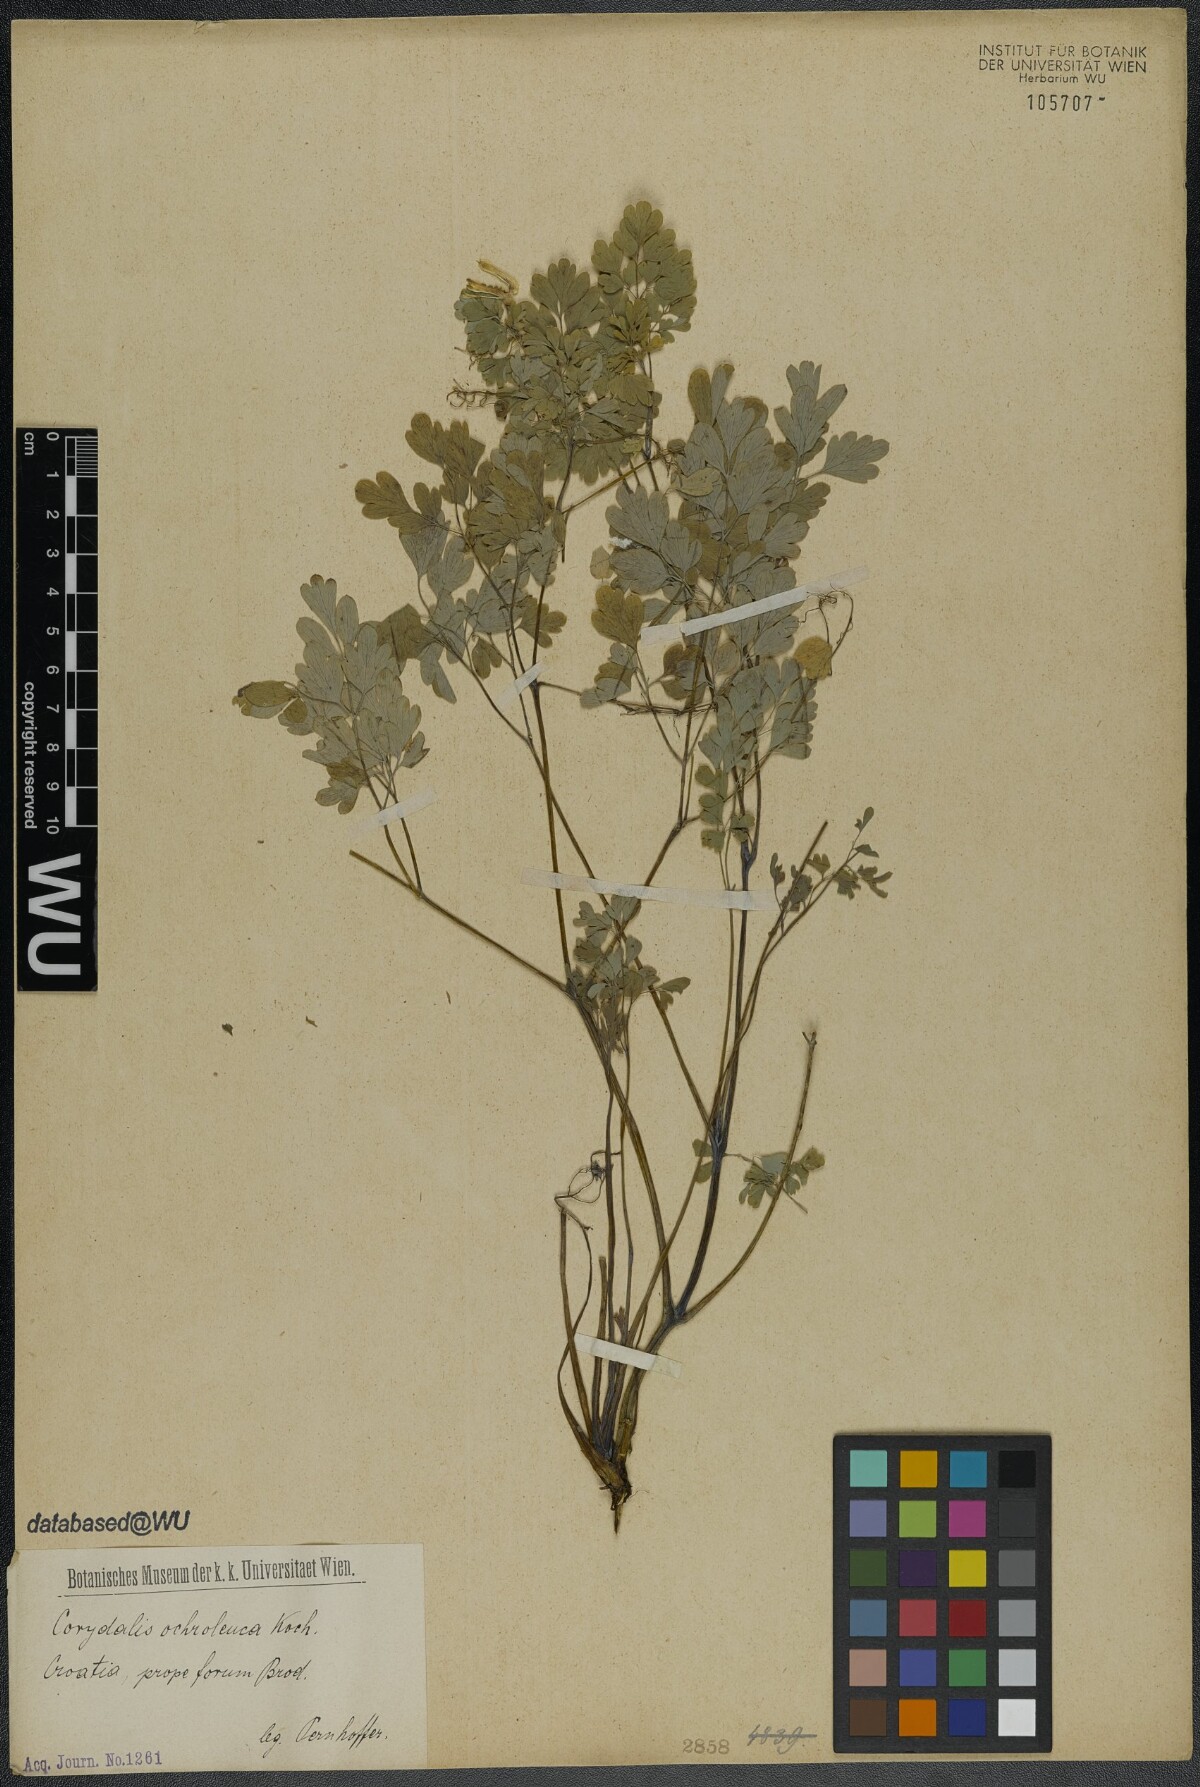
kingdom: Plantae
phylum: Tracheophyta
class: Magnoliopsida
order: Ranunculales
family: Papaveraceae
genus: Pseudofumaria
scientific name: Pseudofumaria alba
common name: Pale corydalis
